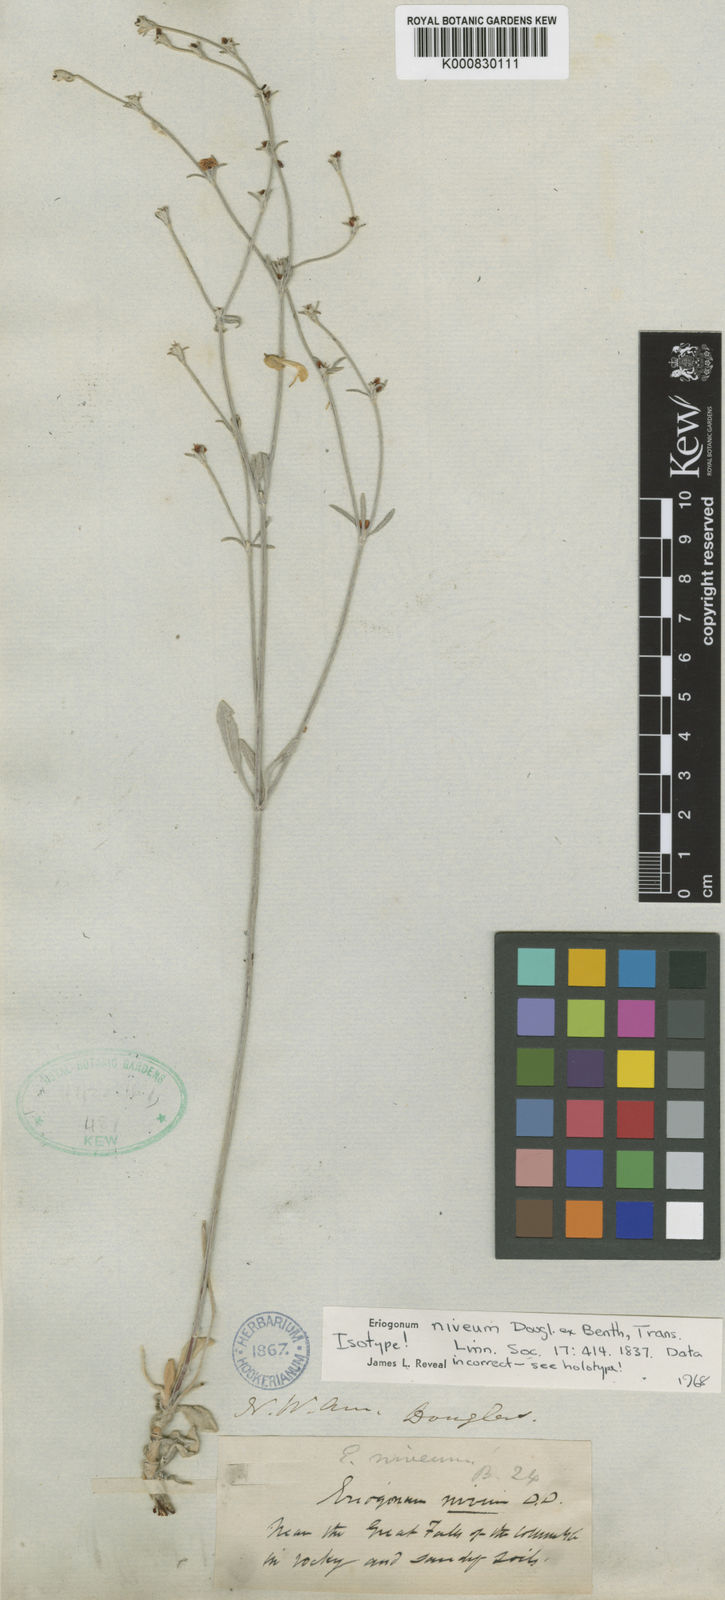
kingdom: Plantae
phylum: Tracheophyta
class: Magnoliopsida
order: Caryophyllales
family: Polygonaceae
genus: Eriogonum
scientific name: Eriogonum niveum
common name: Snow wild buckwheat
